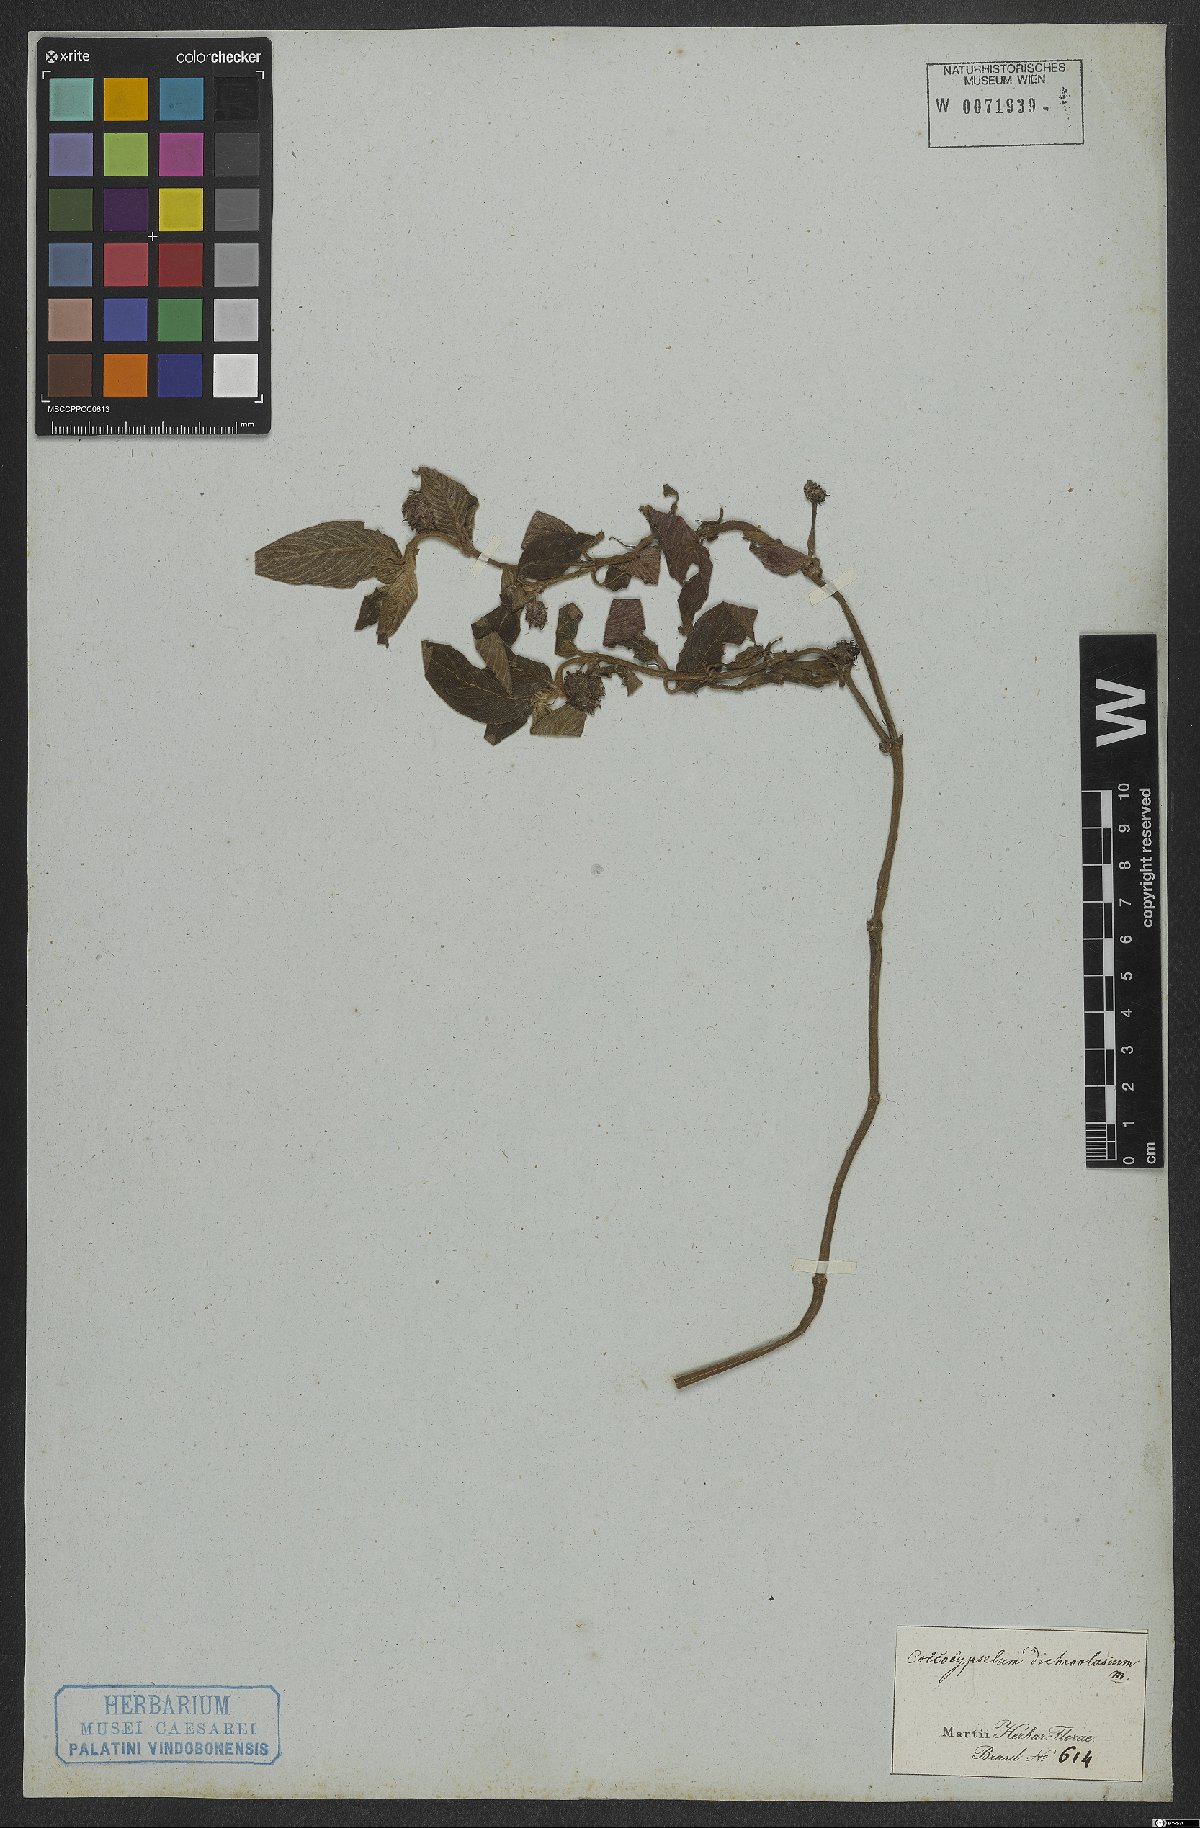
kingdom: Plantae
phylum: Tracheophyta
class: Magnoliopsida
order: Gentianales
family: Rubiaceae
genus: Coccocypselum
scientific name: Coccocypselum lanceolatum
